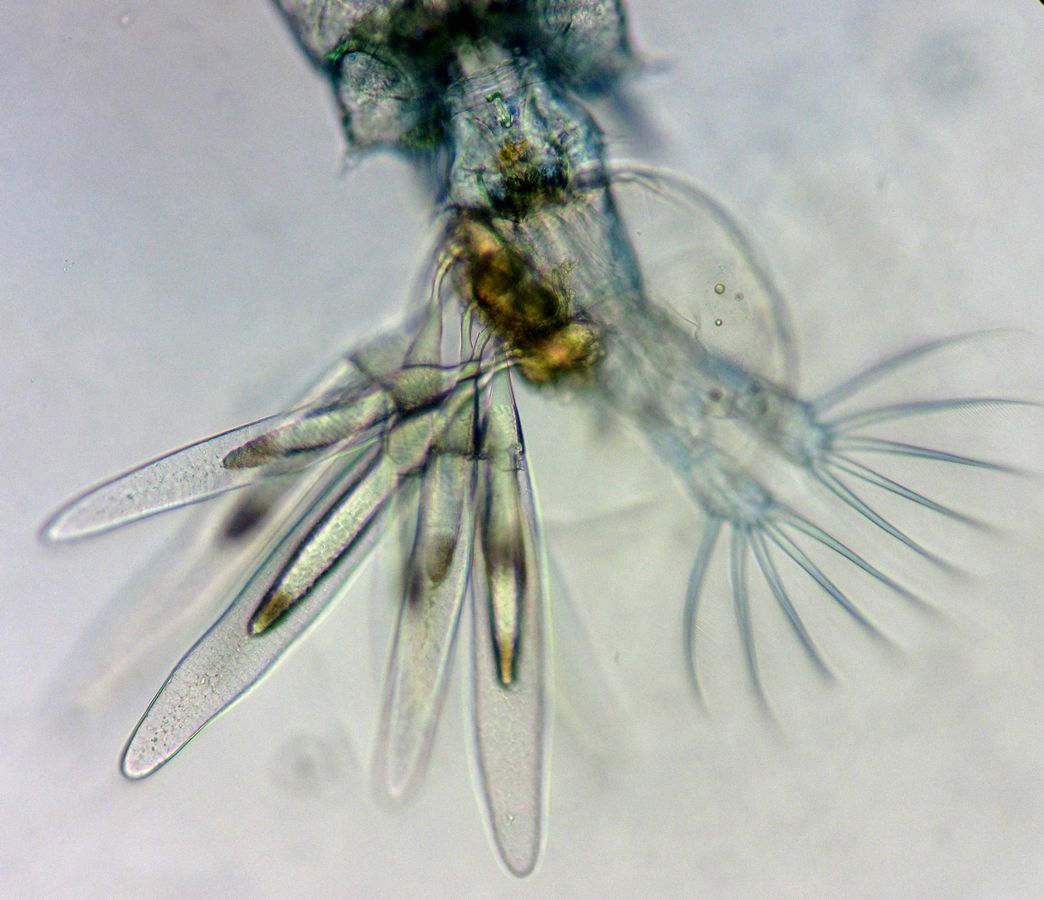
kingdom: Animalia
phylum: Arthropoda
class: Copepoda
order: Calanoida
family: Diaptomidae
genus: Diaptomus
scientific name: Diaptomus zografi
